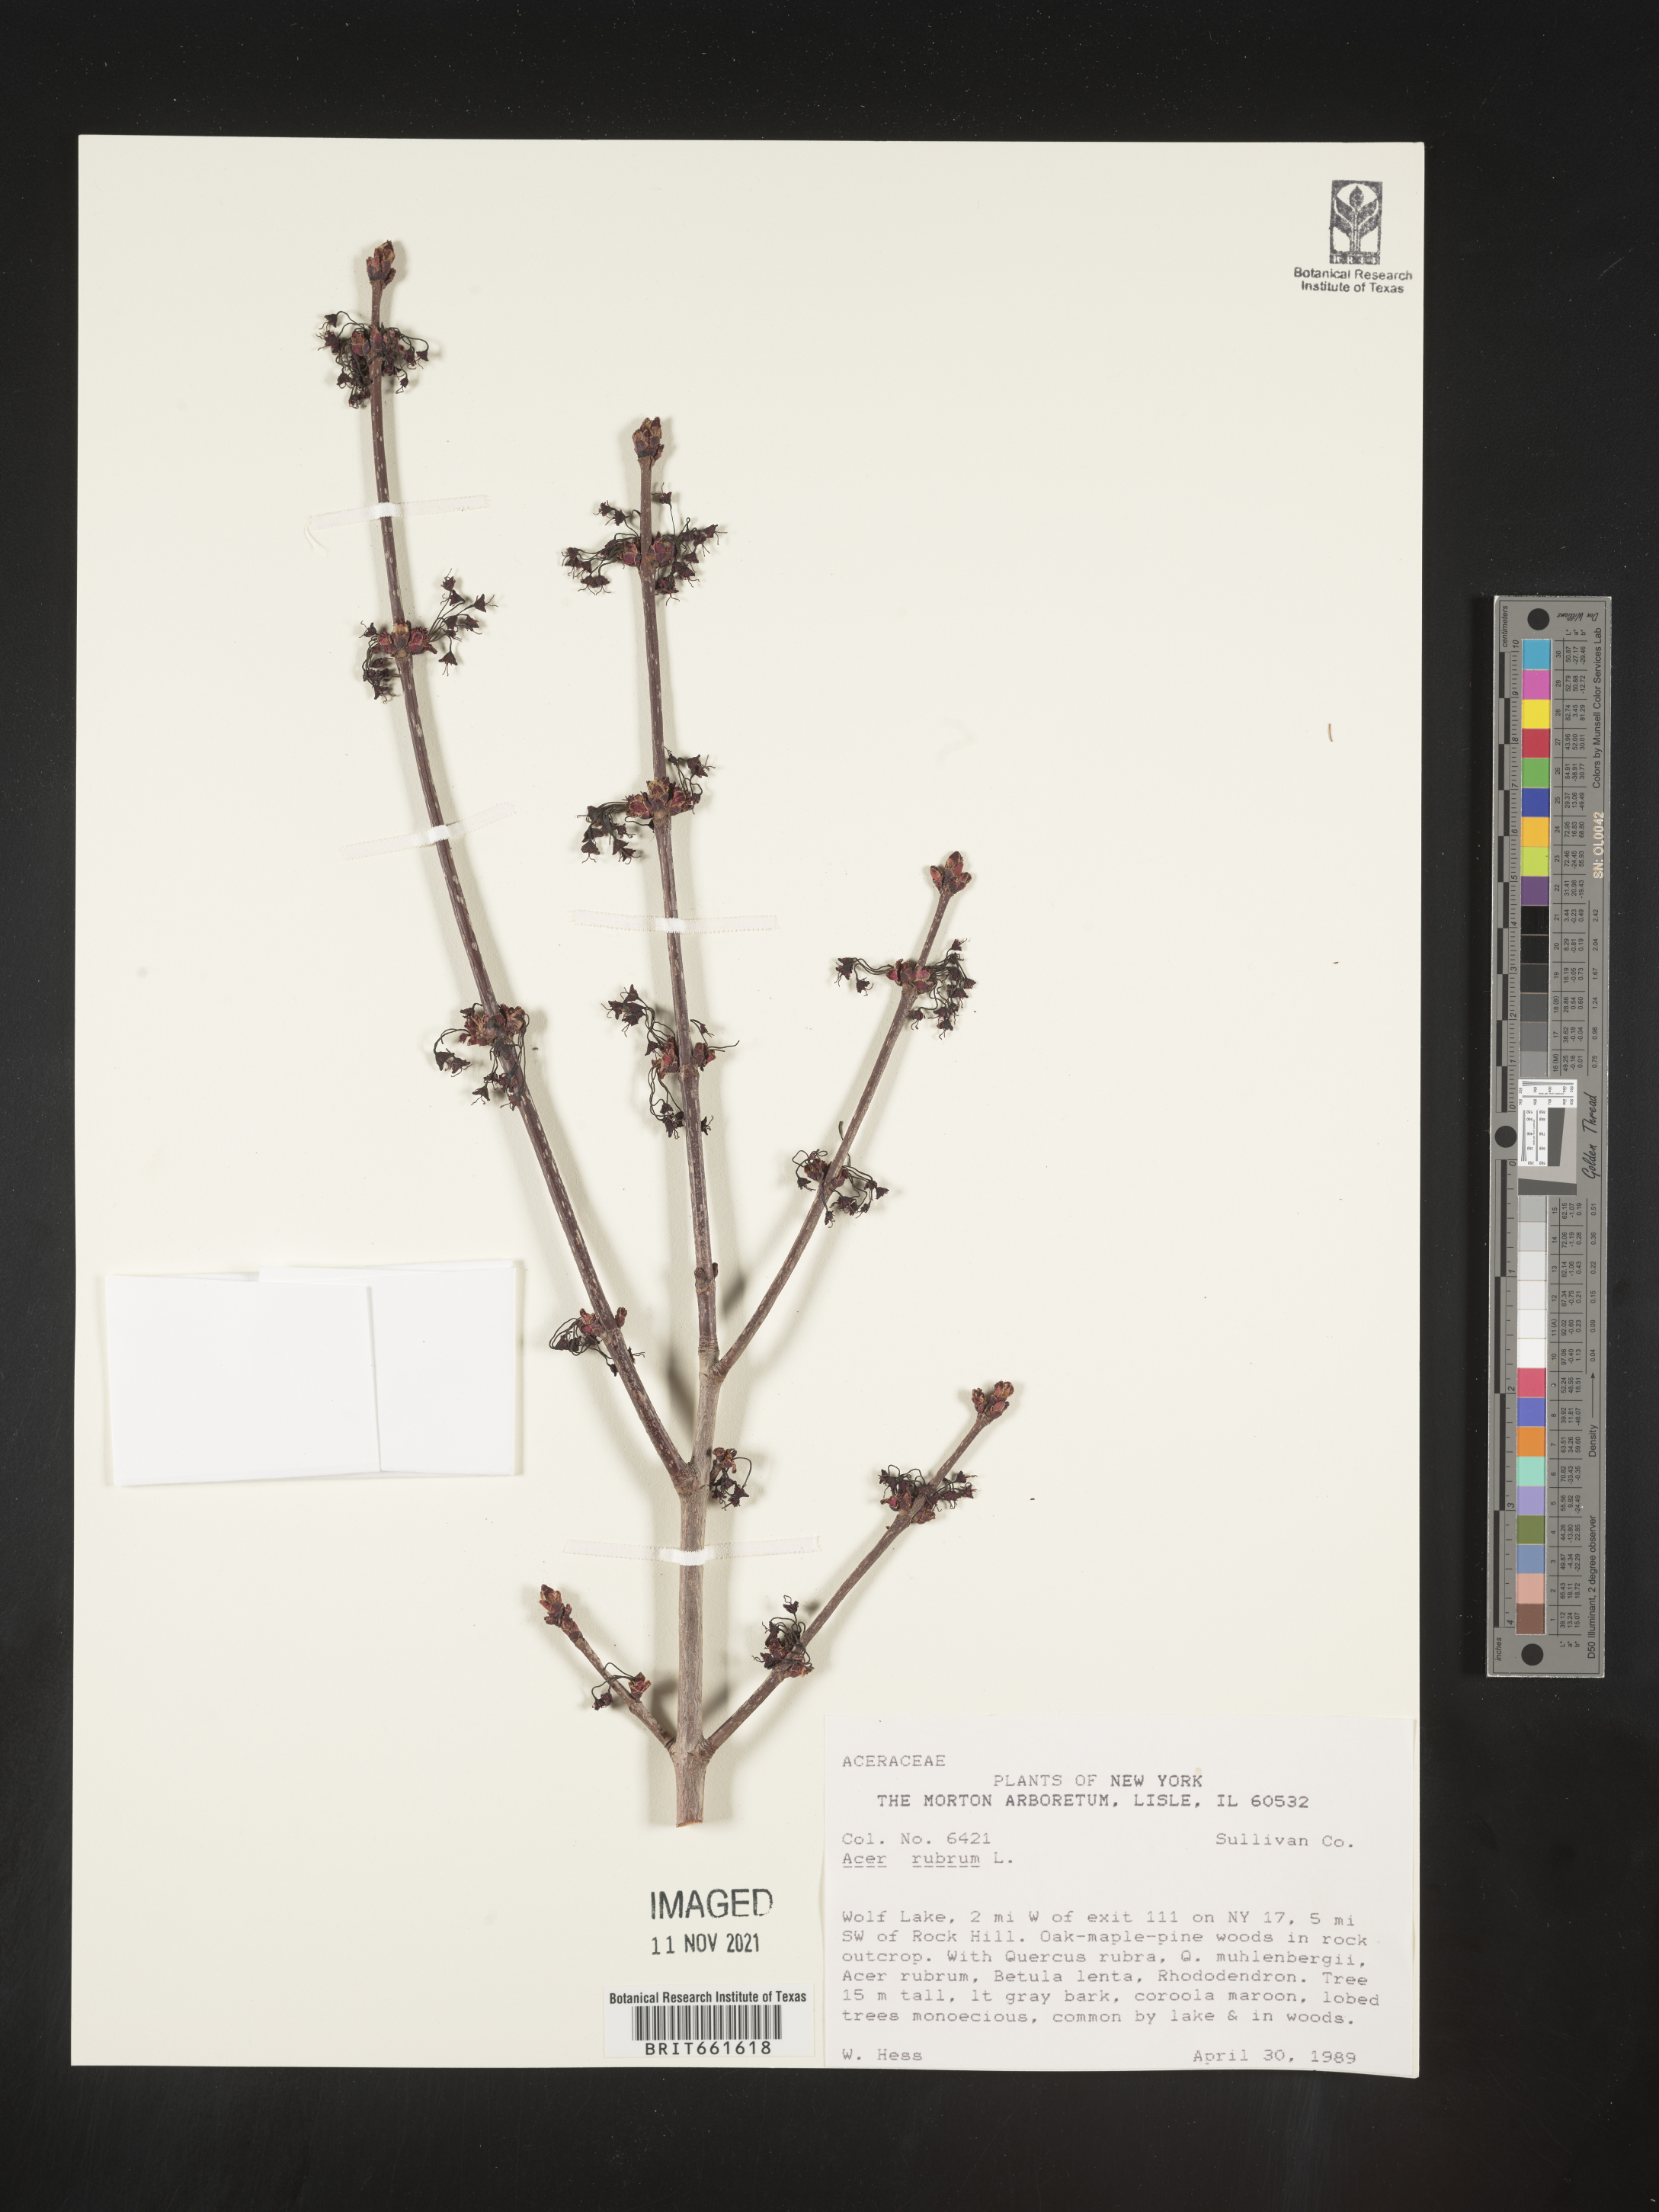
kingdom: Plantae
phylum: Tracheophyta
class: Magnoliopsida
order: Sapindales
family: Sapindaceae
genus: Acer
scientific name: Acer rubrum
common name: Red maple
